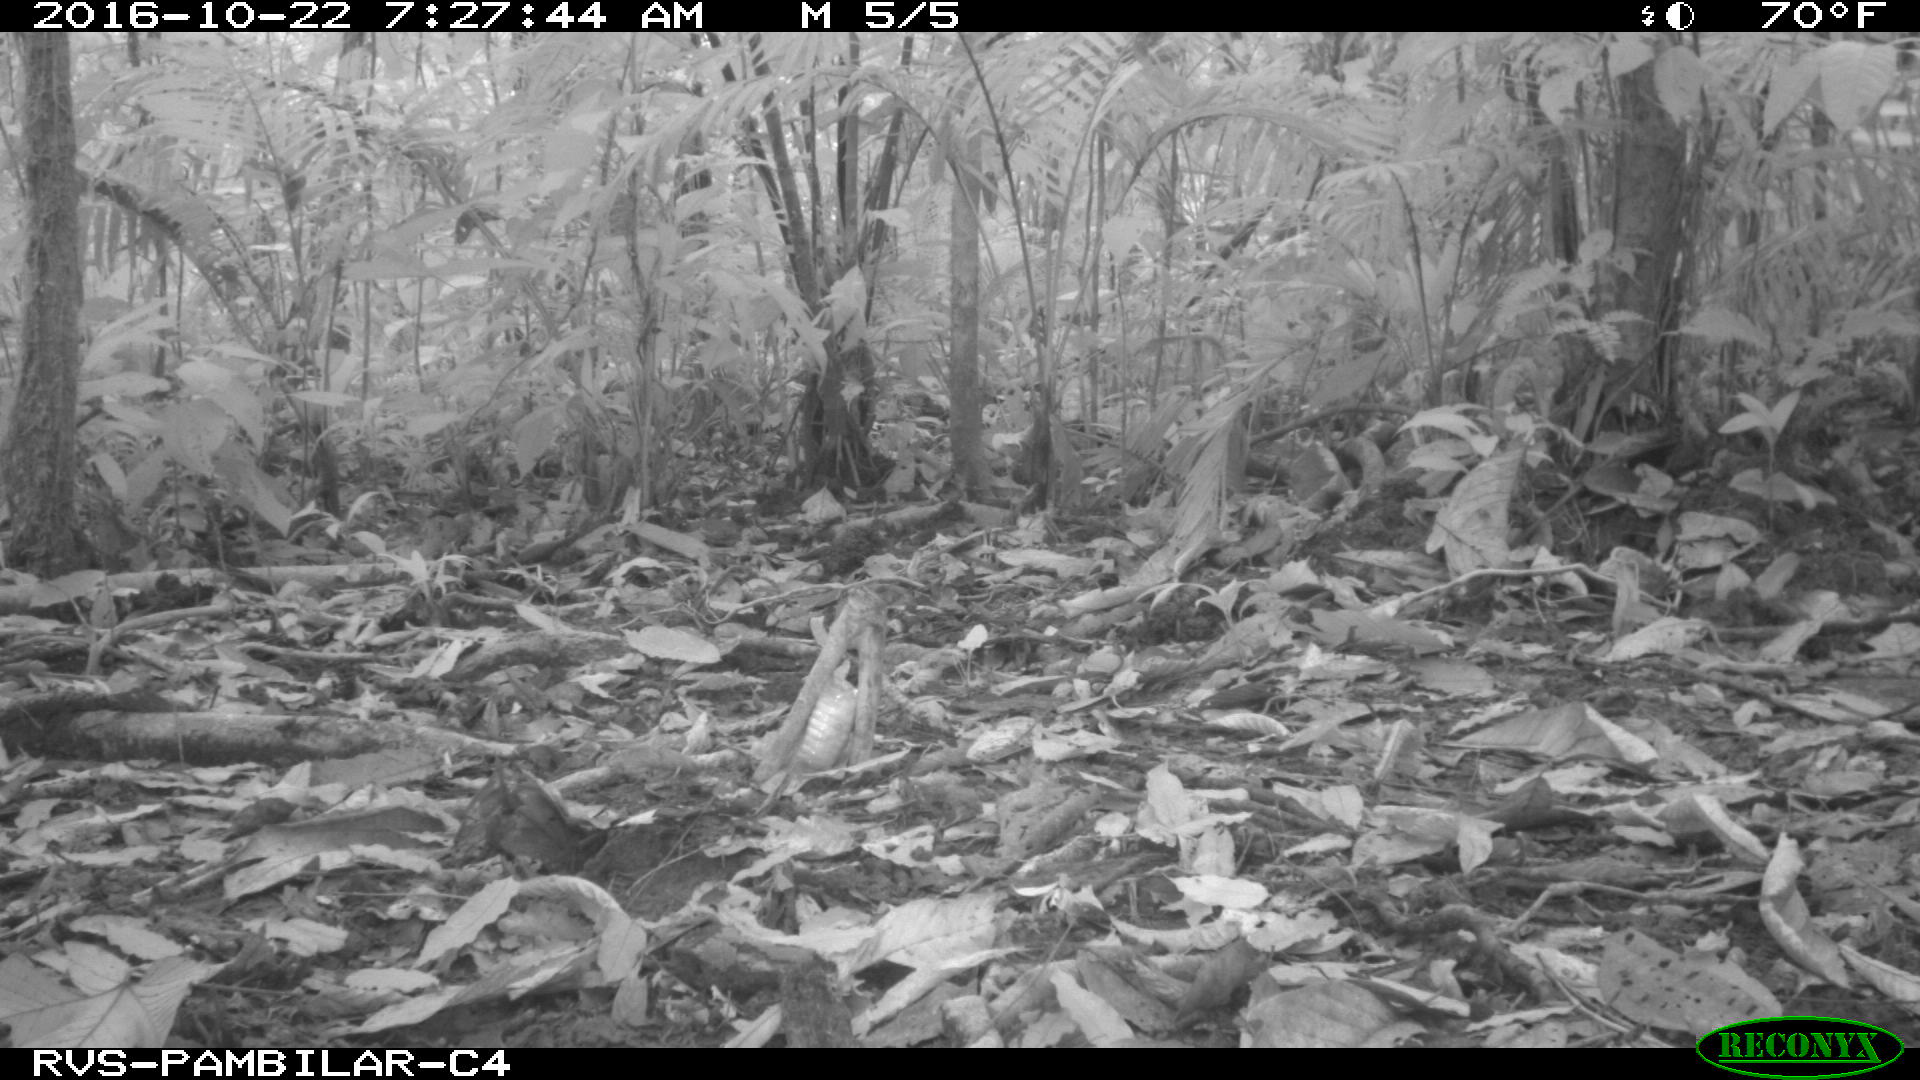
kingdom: Animalia
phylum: Chordata
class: Mammalia
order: Rodentia
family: Dasyproctidae
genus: Dasyprocta
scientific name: Dasyprocta punctata
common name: Central american agouti
